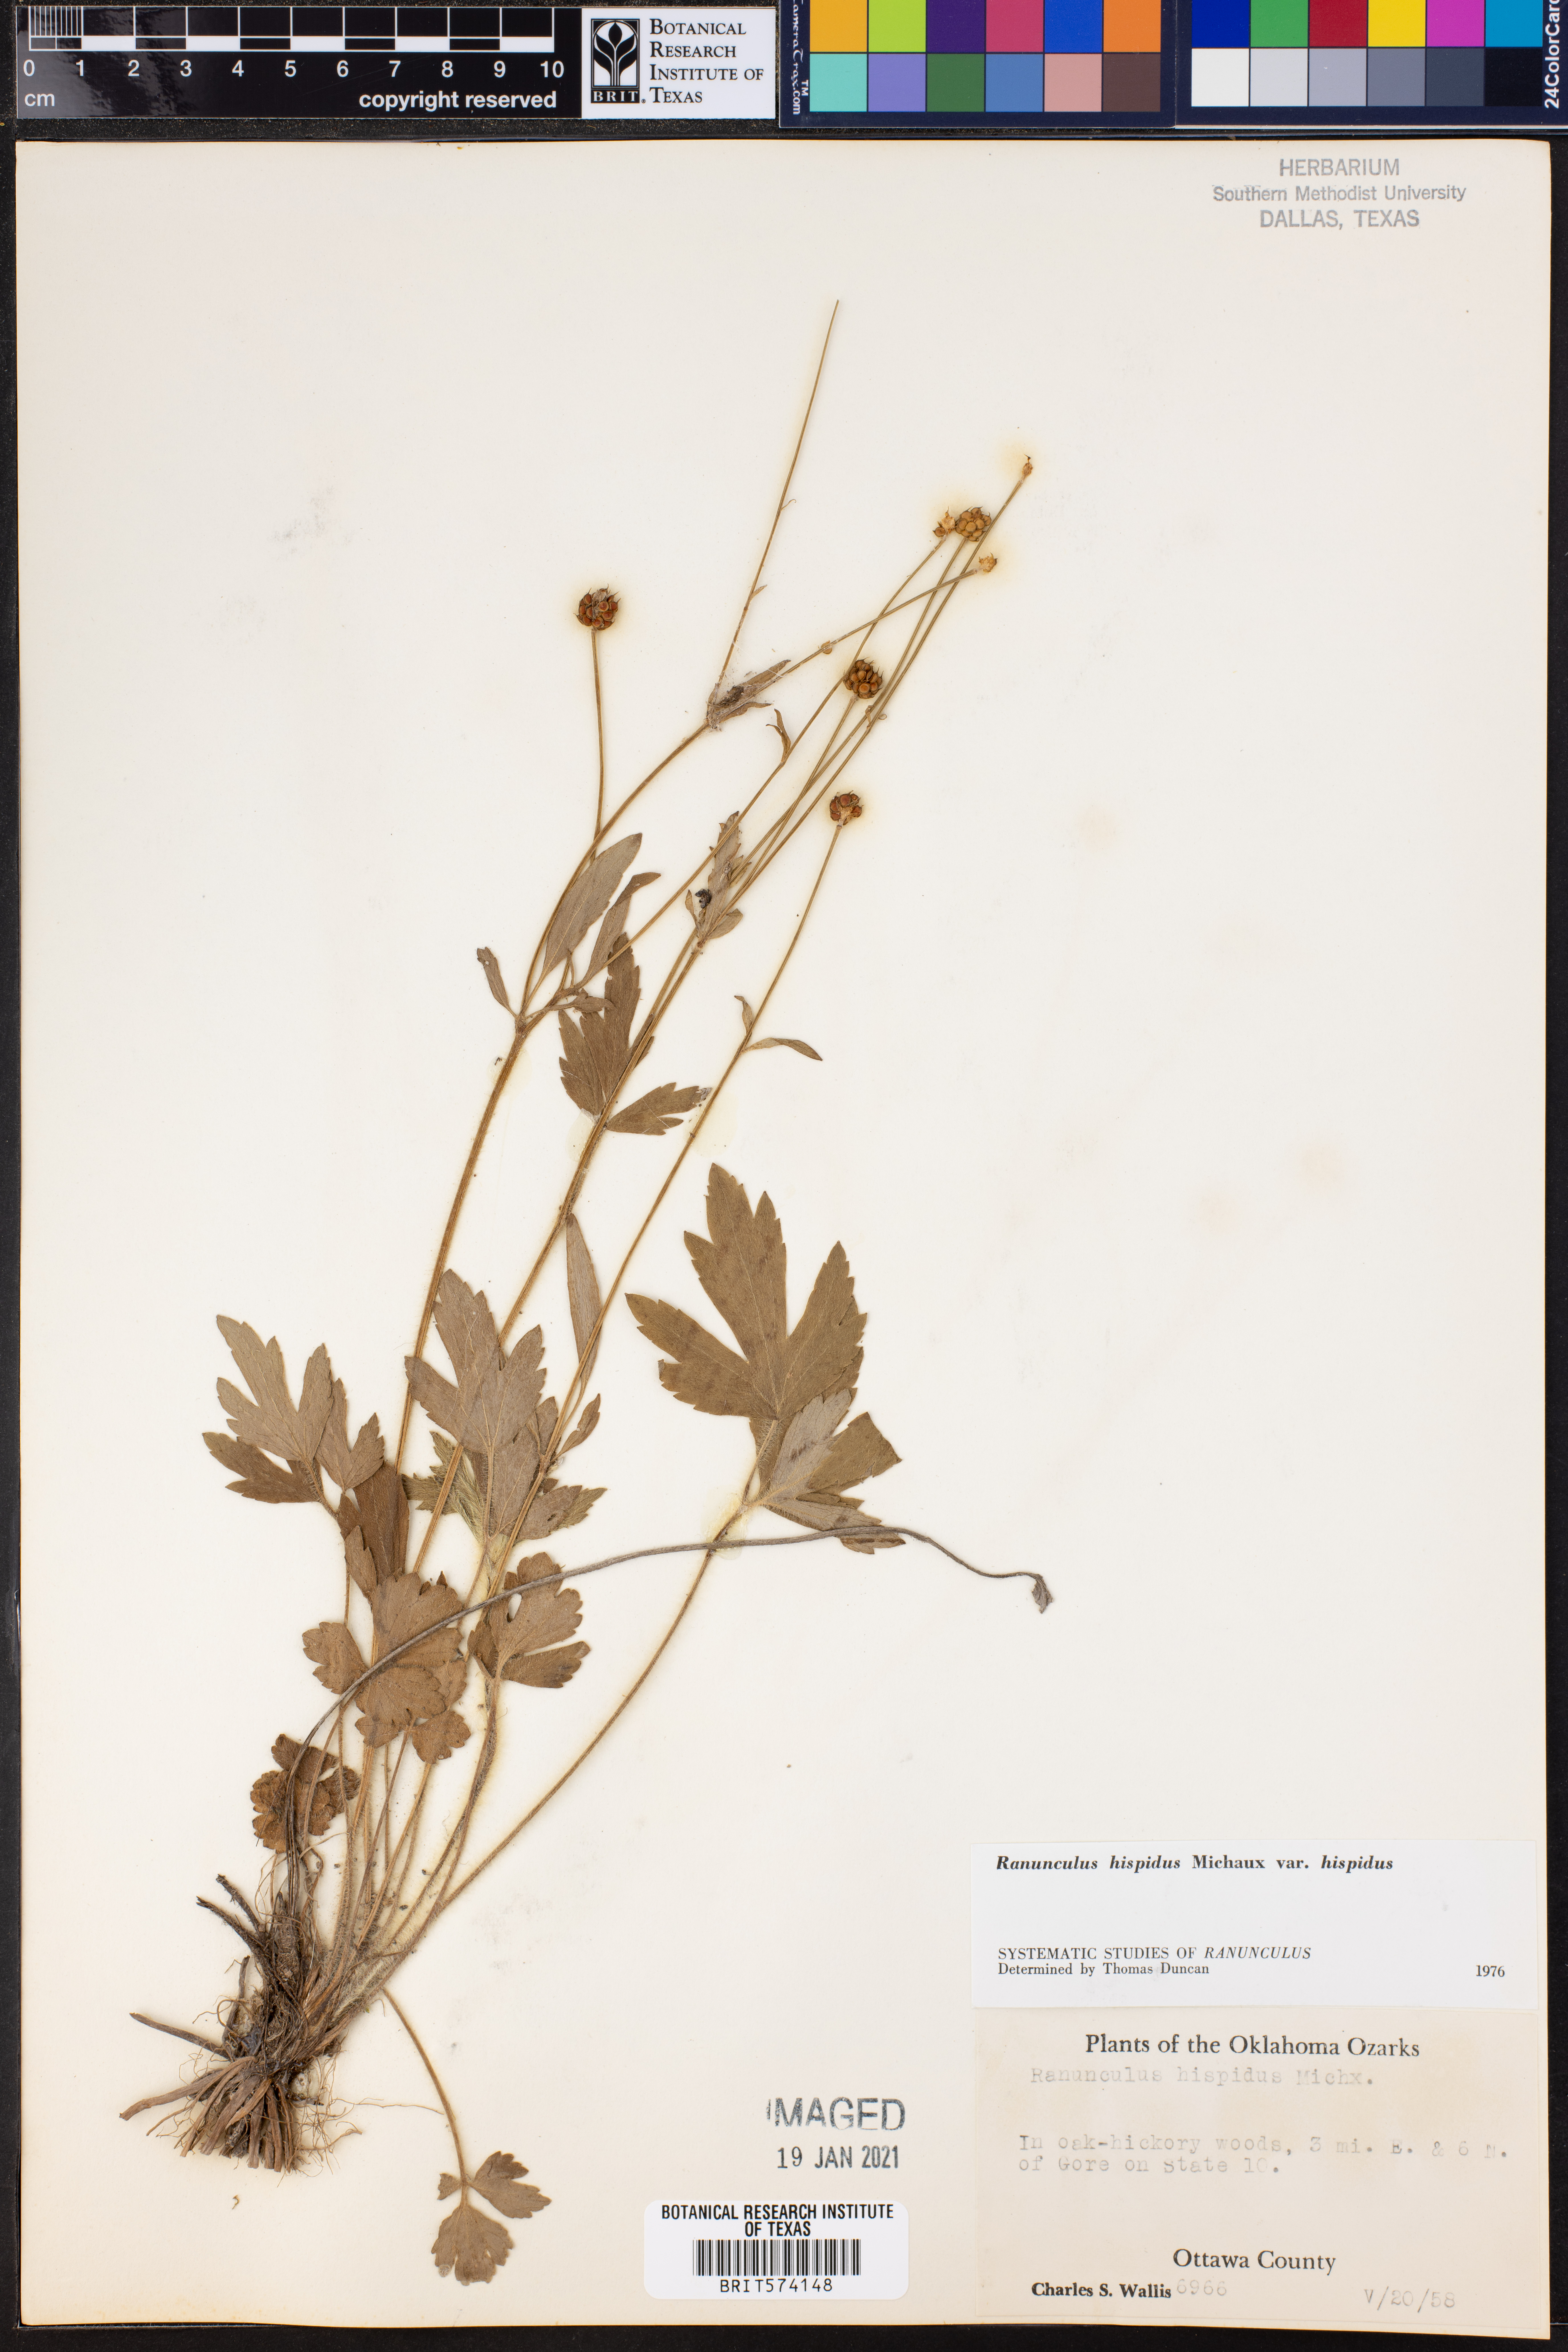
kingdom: Plantae
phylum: Tracheophyta
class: Magnoliopsida
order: Ranunculales
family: Ranunculaceae
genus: Ranunculus
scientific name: Ranunculus hispidus
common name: Bristly buttercup
